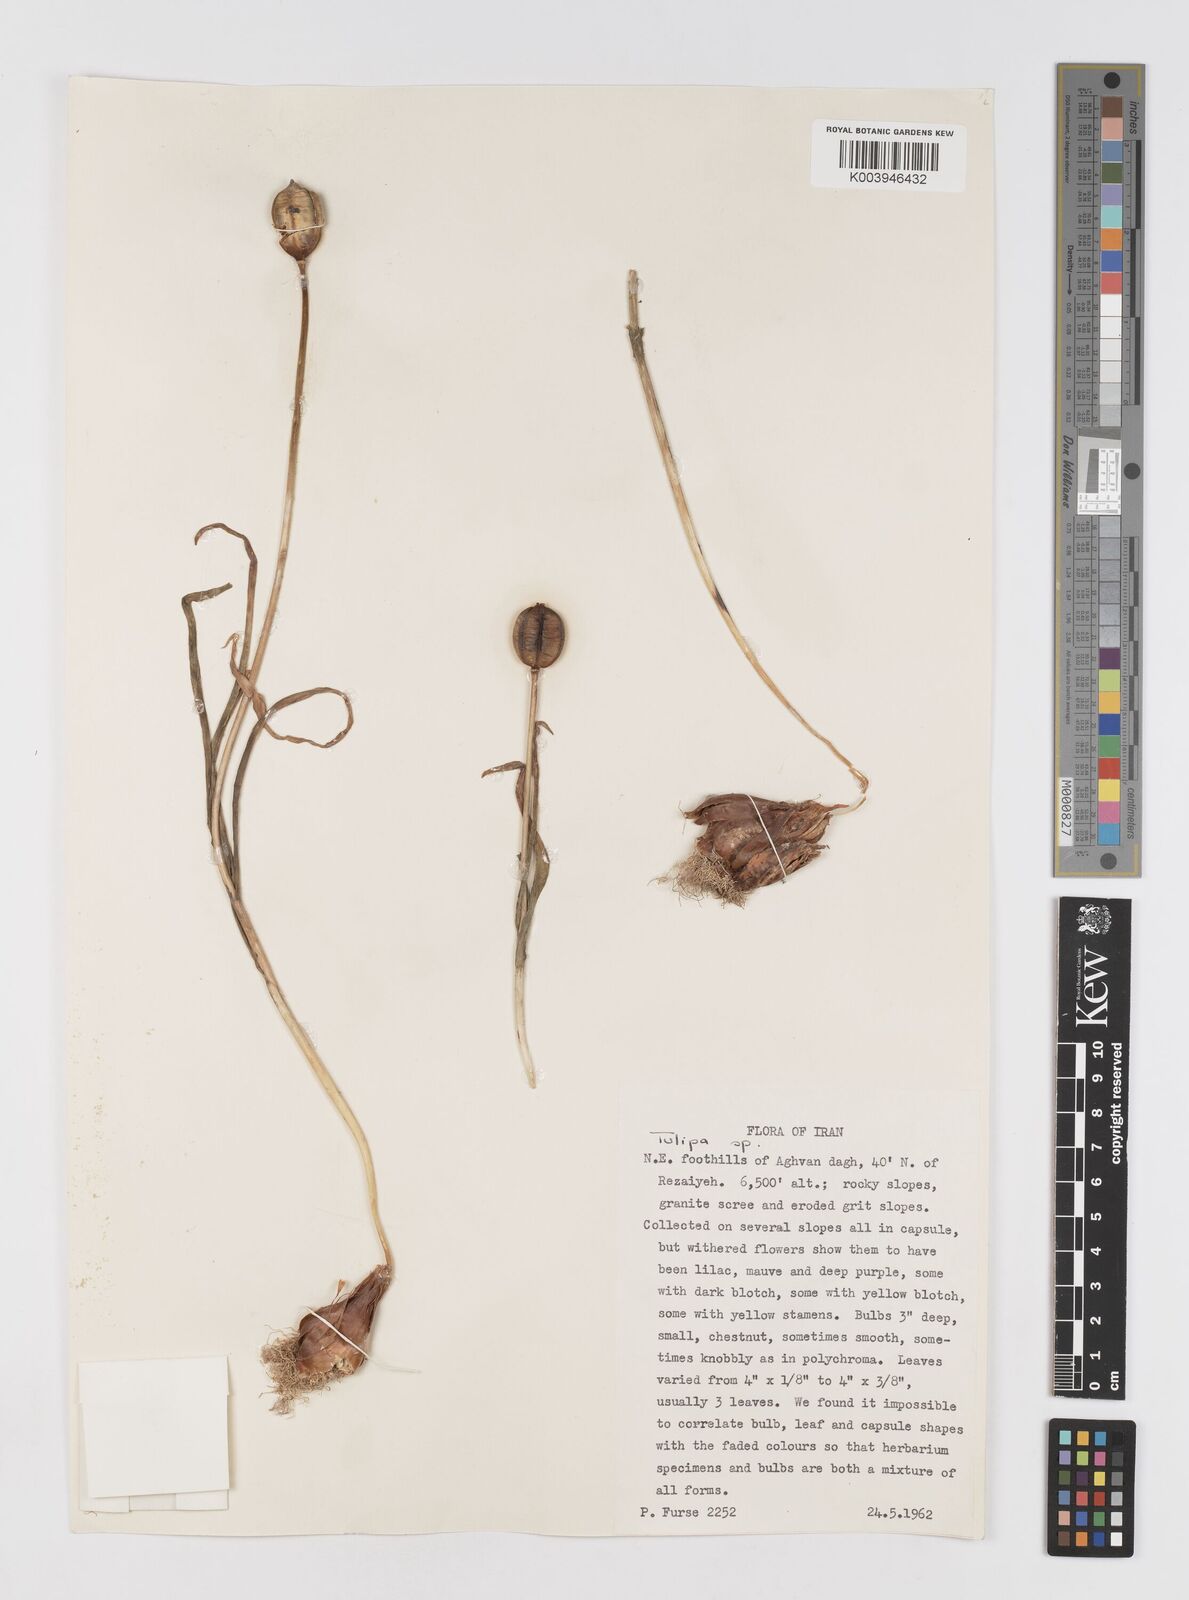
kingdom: Plantae
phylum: Tracheophyta
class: Liliopsida
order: Liliales
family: Liliaceae
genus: Tulipa
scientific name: Tulipa
